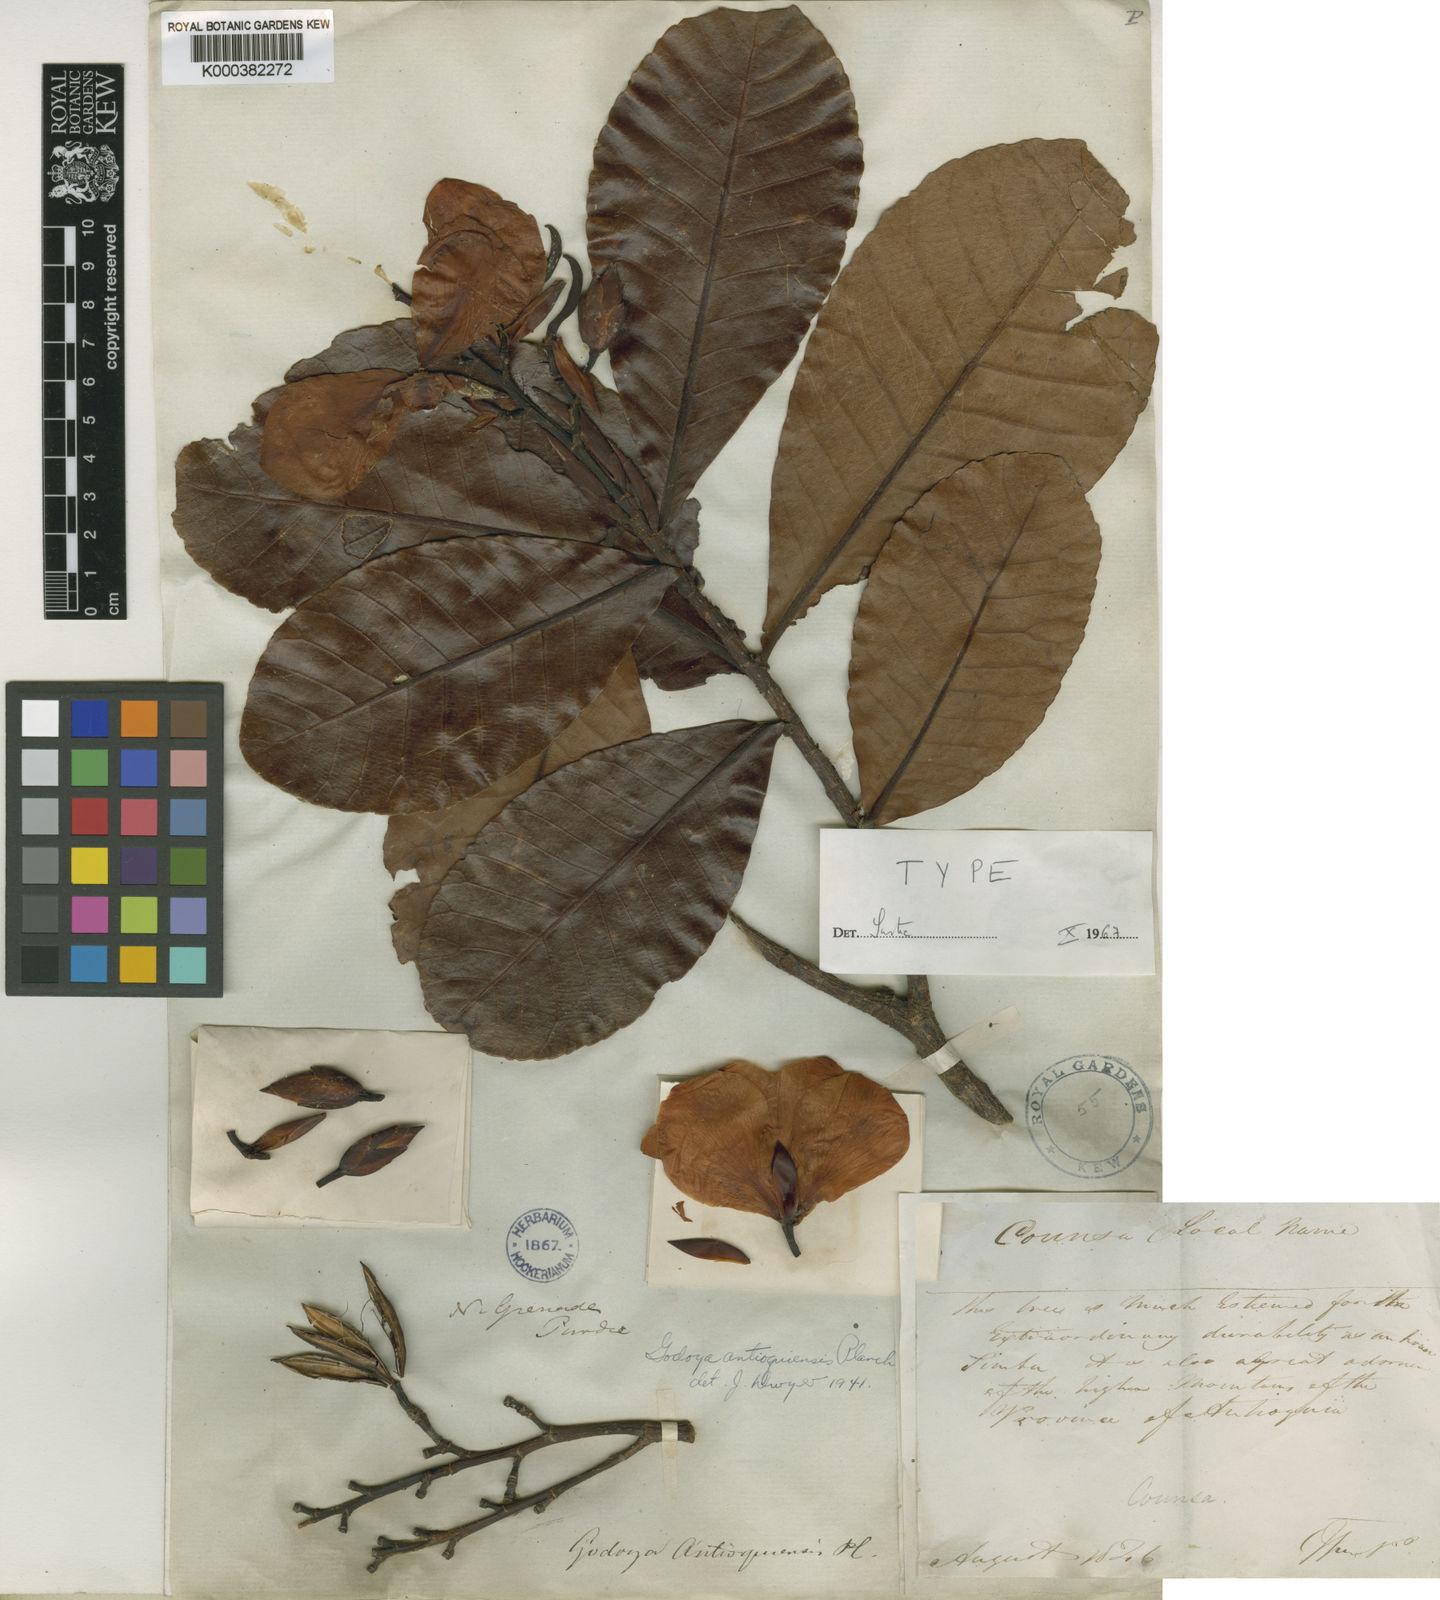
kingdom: Plantae
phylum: Tracheophyta
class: Magnoliopsida
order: Malpighiales
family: Ochnaceae
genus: Godoya
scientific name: Godoya antioquiensis
